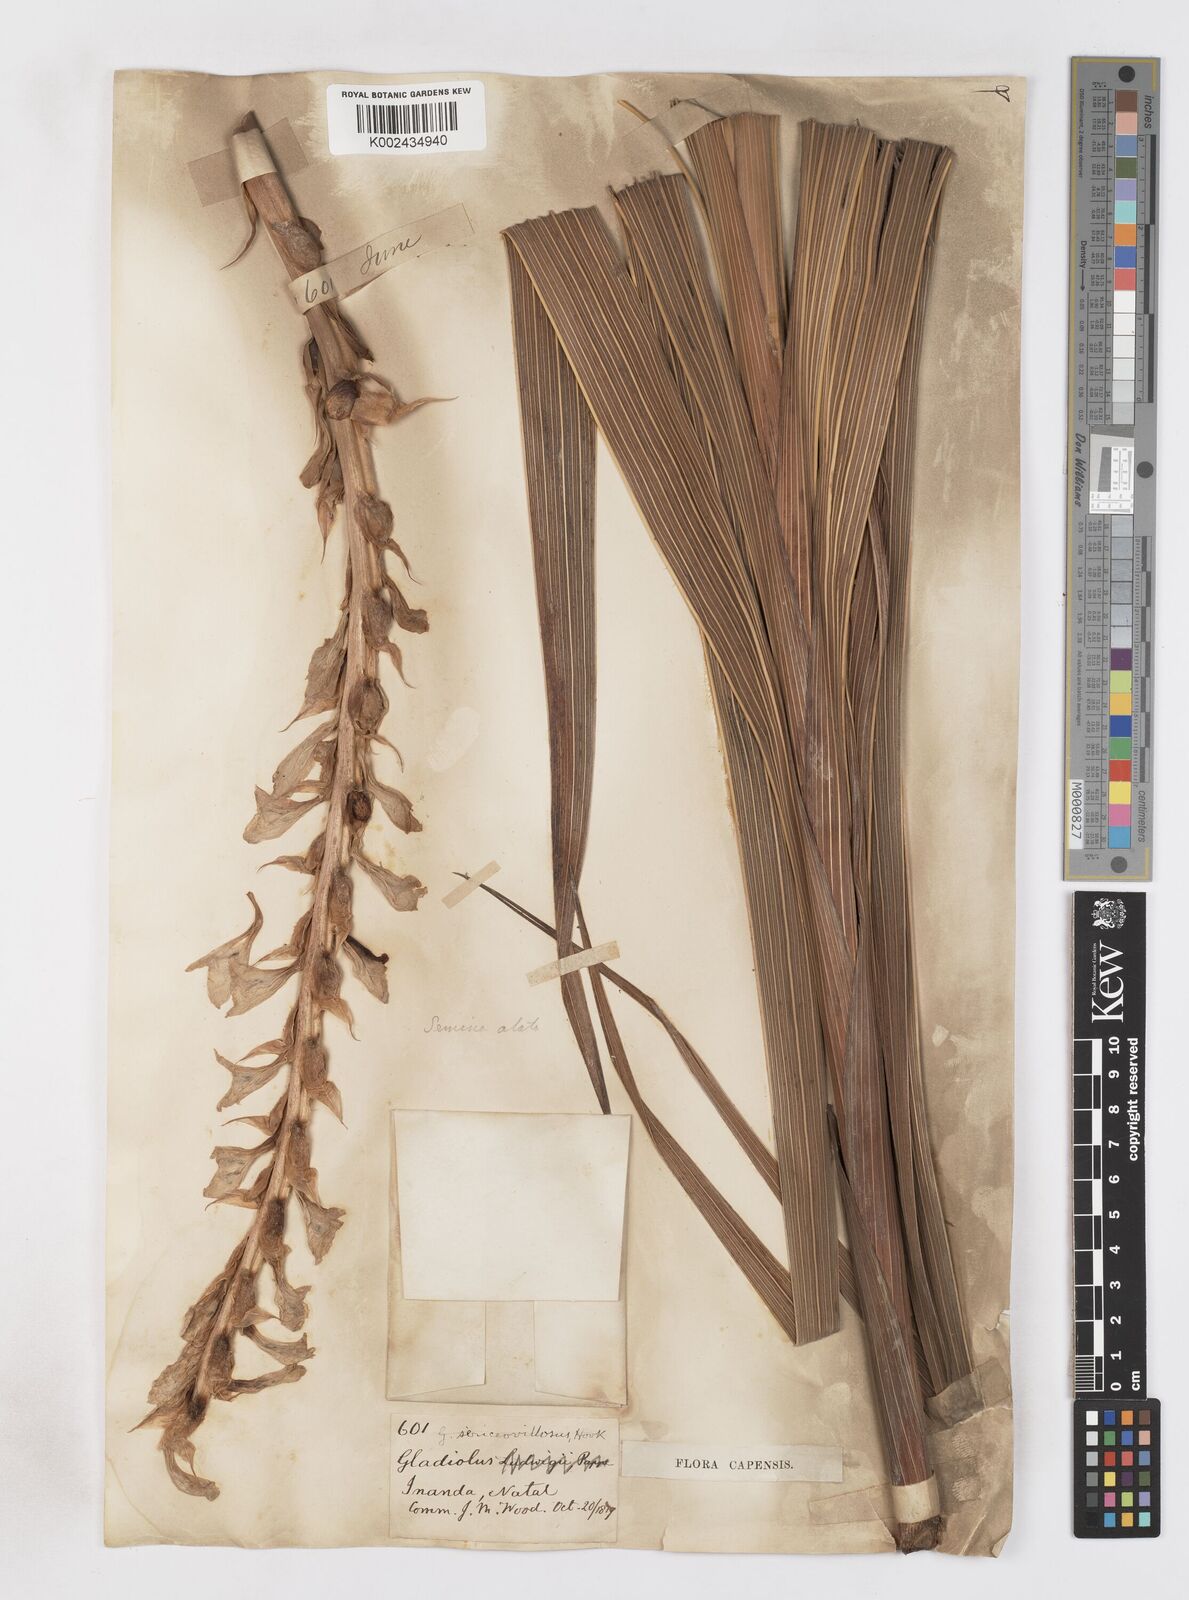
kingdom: Plantae
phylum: Tracheophyta
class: Liliopsida
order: Asparagales
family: Iridaceae
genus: Gladiolus
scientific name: Gladiolus sericeovillosus
